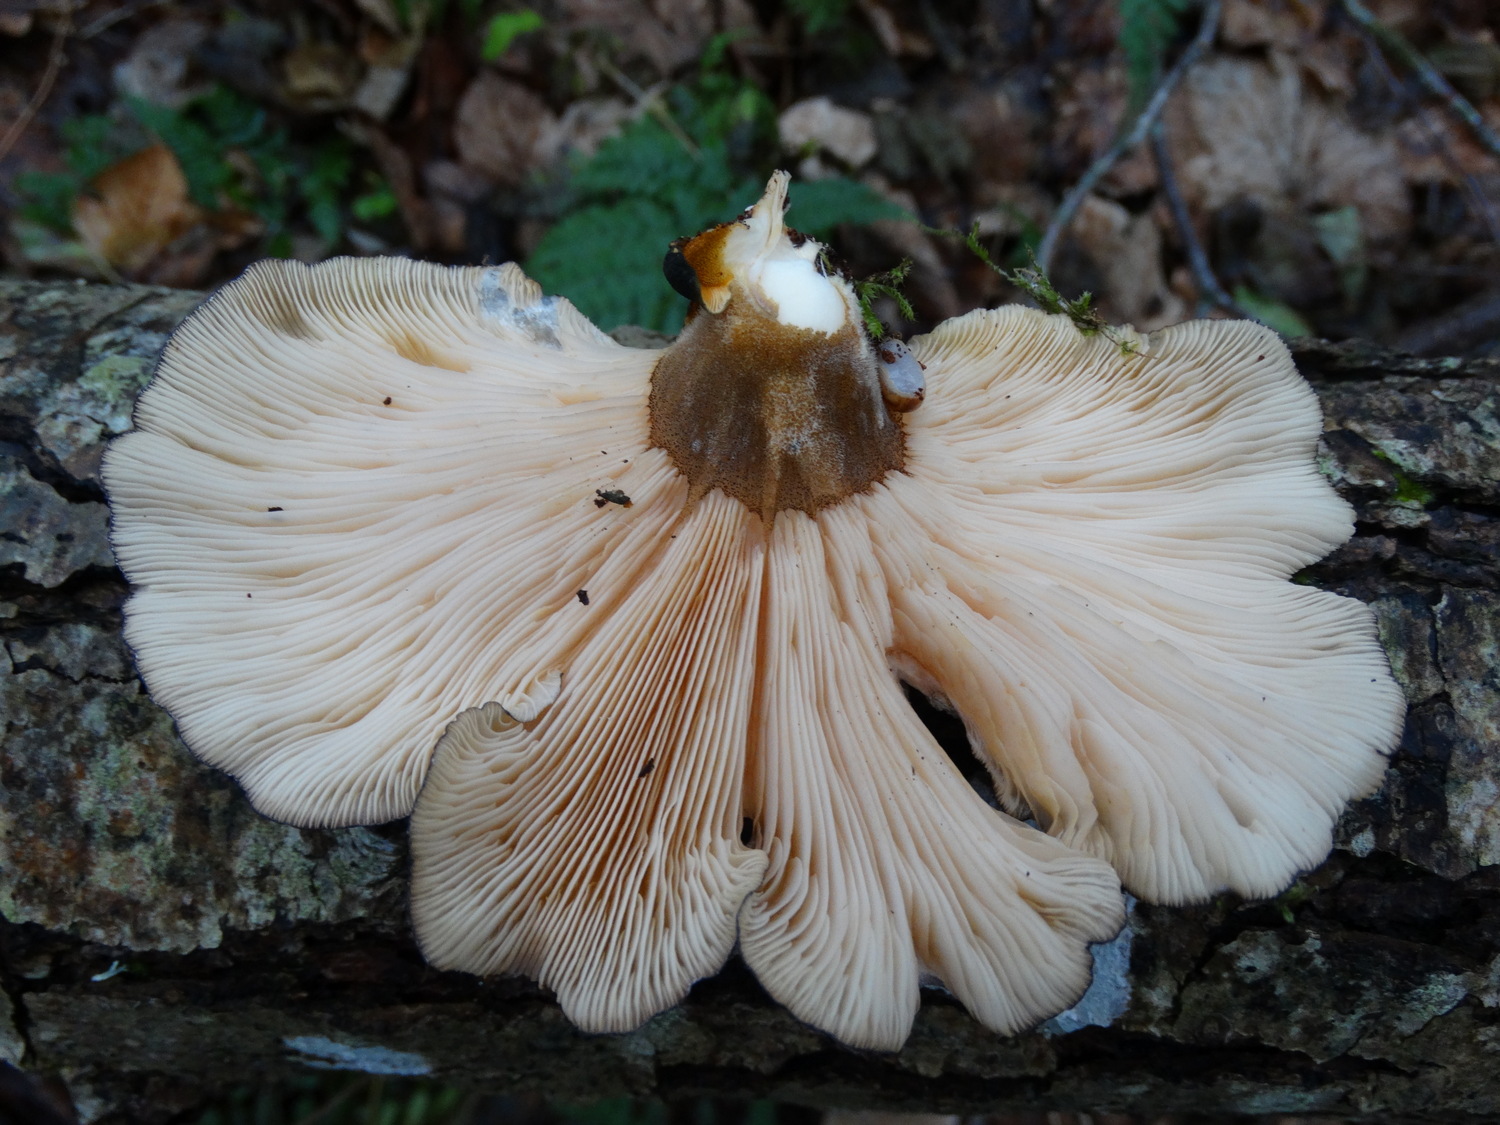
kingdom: Fungi
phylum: Basidiomycota
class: Agaricomycetes
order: Agaricales
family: Sarcomyxaceae
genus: Sarcomyxa
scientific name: Sarcomyxa serotina
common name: gummihat
